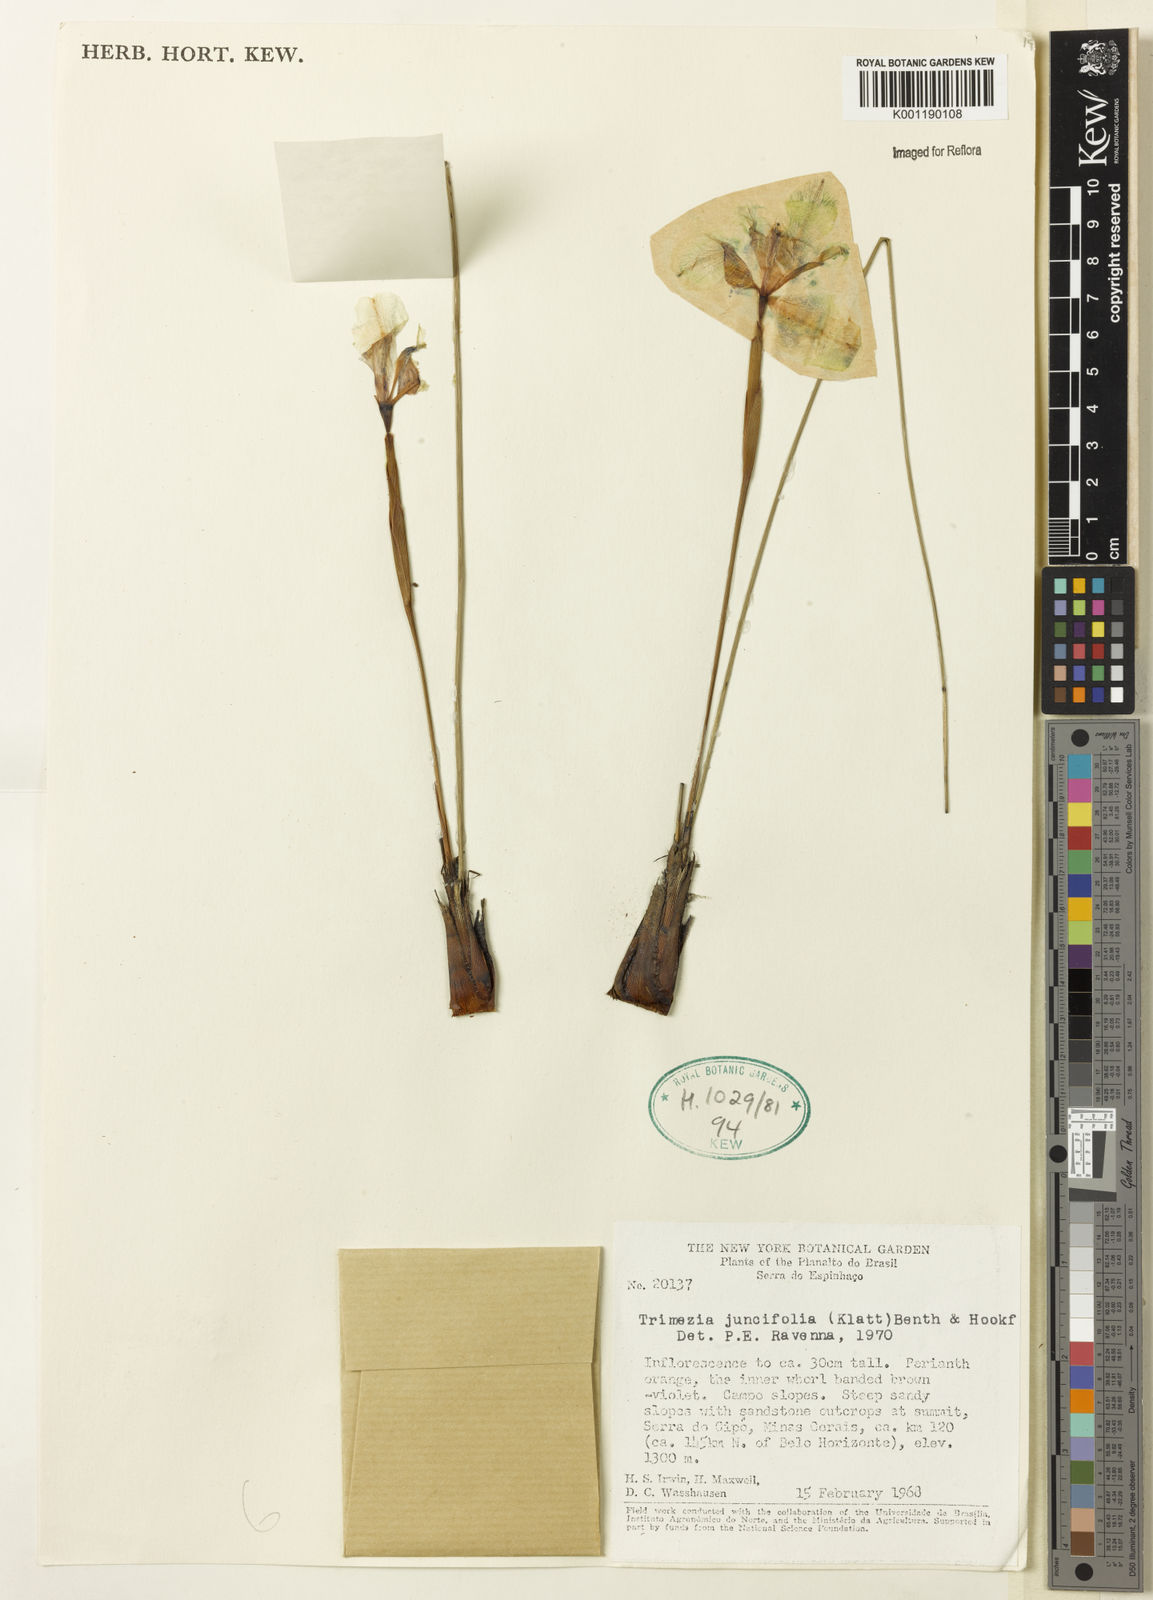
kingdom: Plantae
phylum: Tracheophyta
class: Liliopsida
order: Asparagales
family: Iridaceae
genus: Trimezia
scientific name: Trimezia juncifolia
